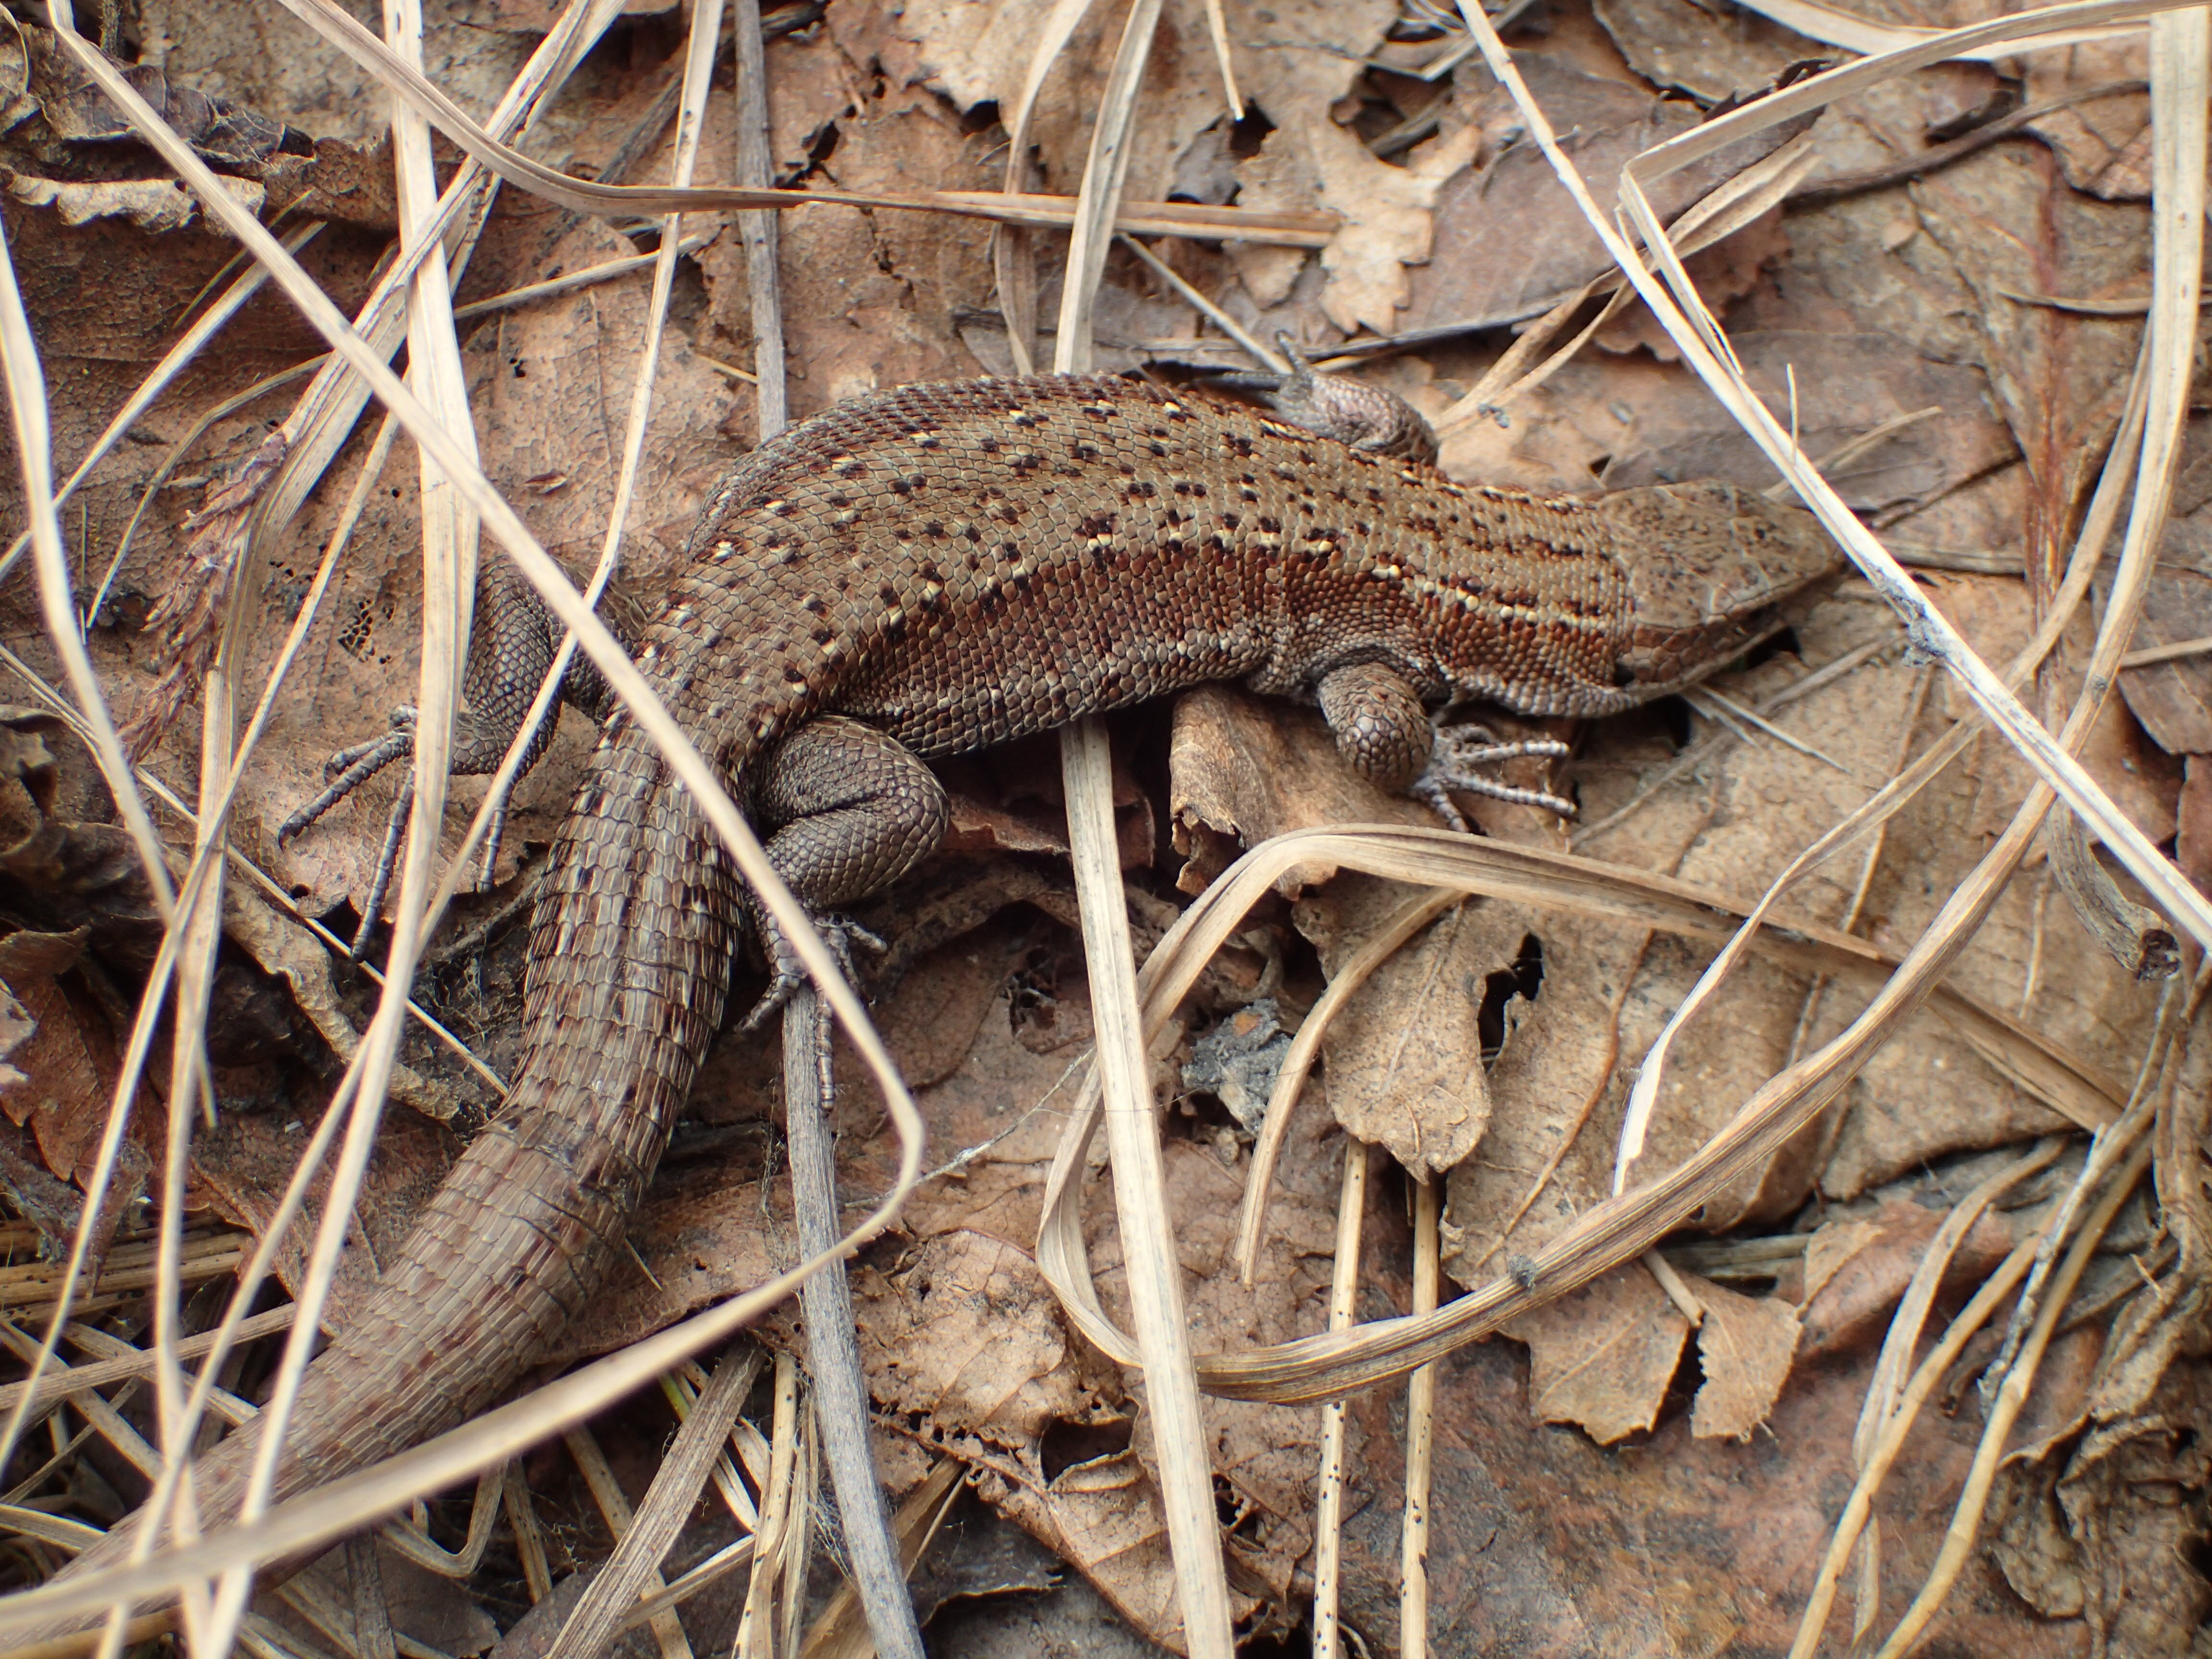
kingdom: Animalia
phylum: Chordata
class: Squamata
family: Lacertidae
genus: Zootoca
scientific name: Zootoca vivipara
